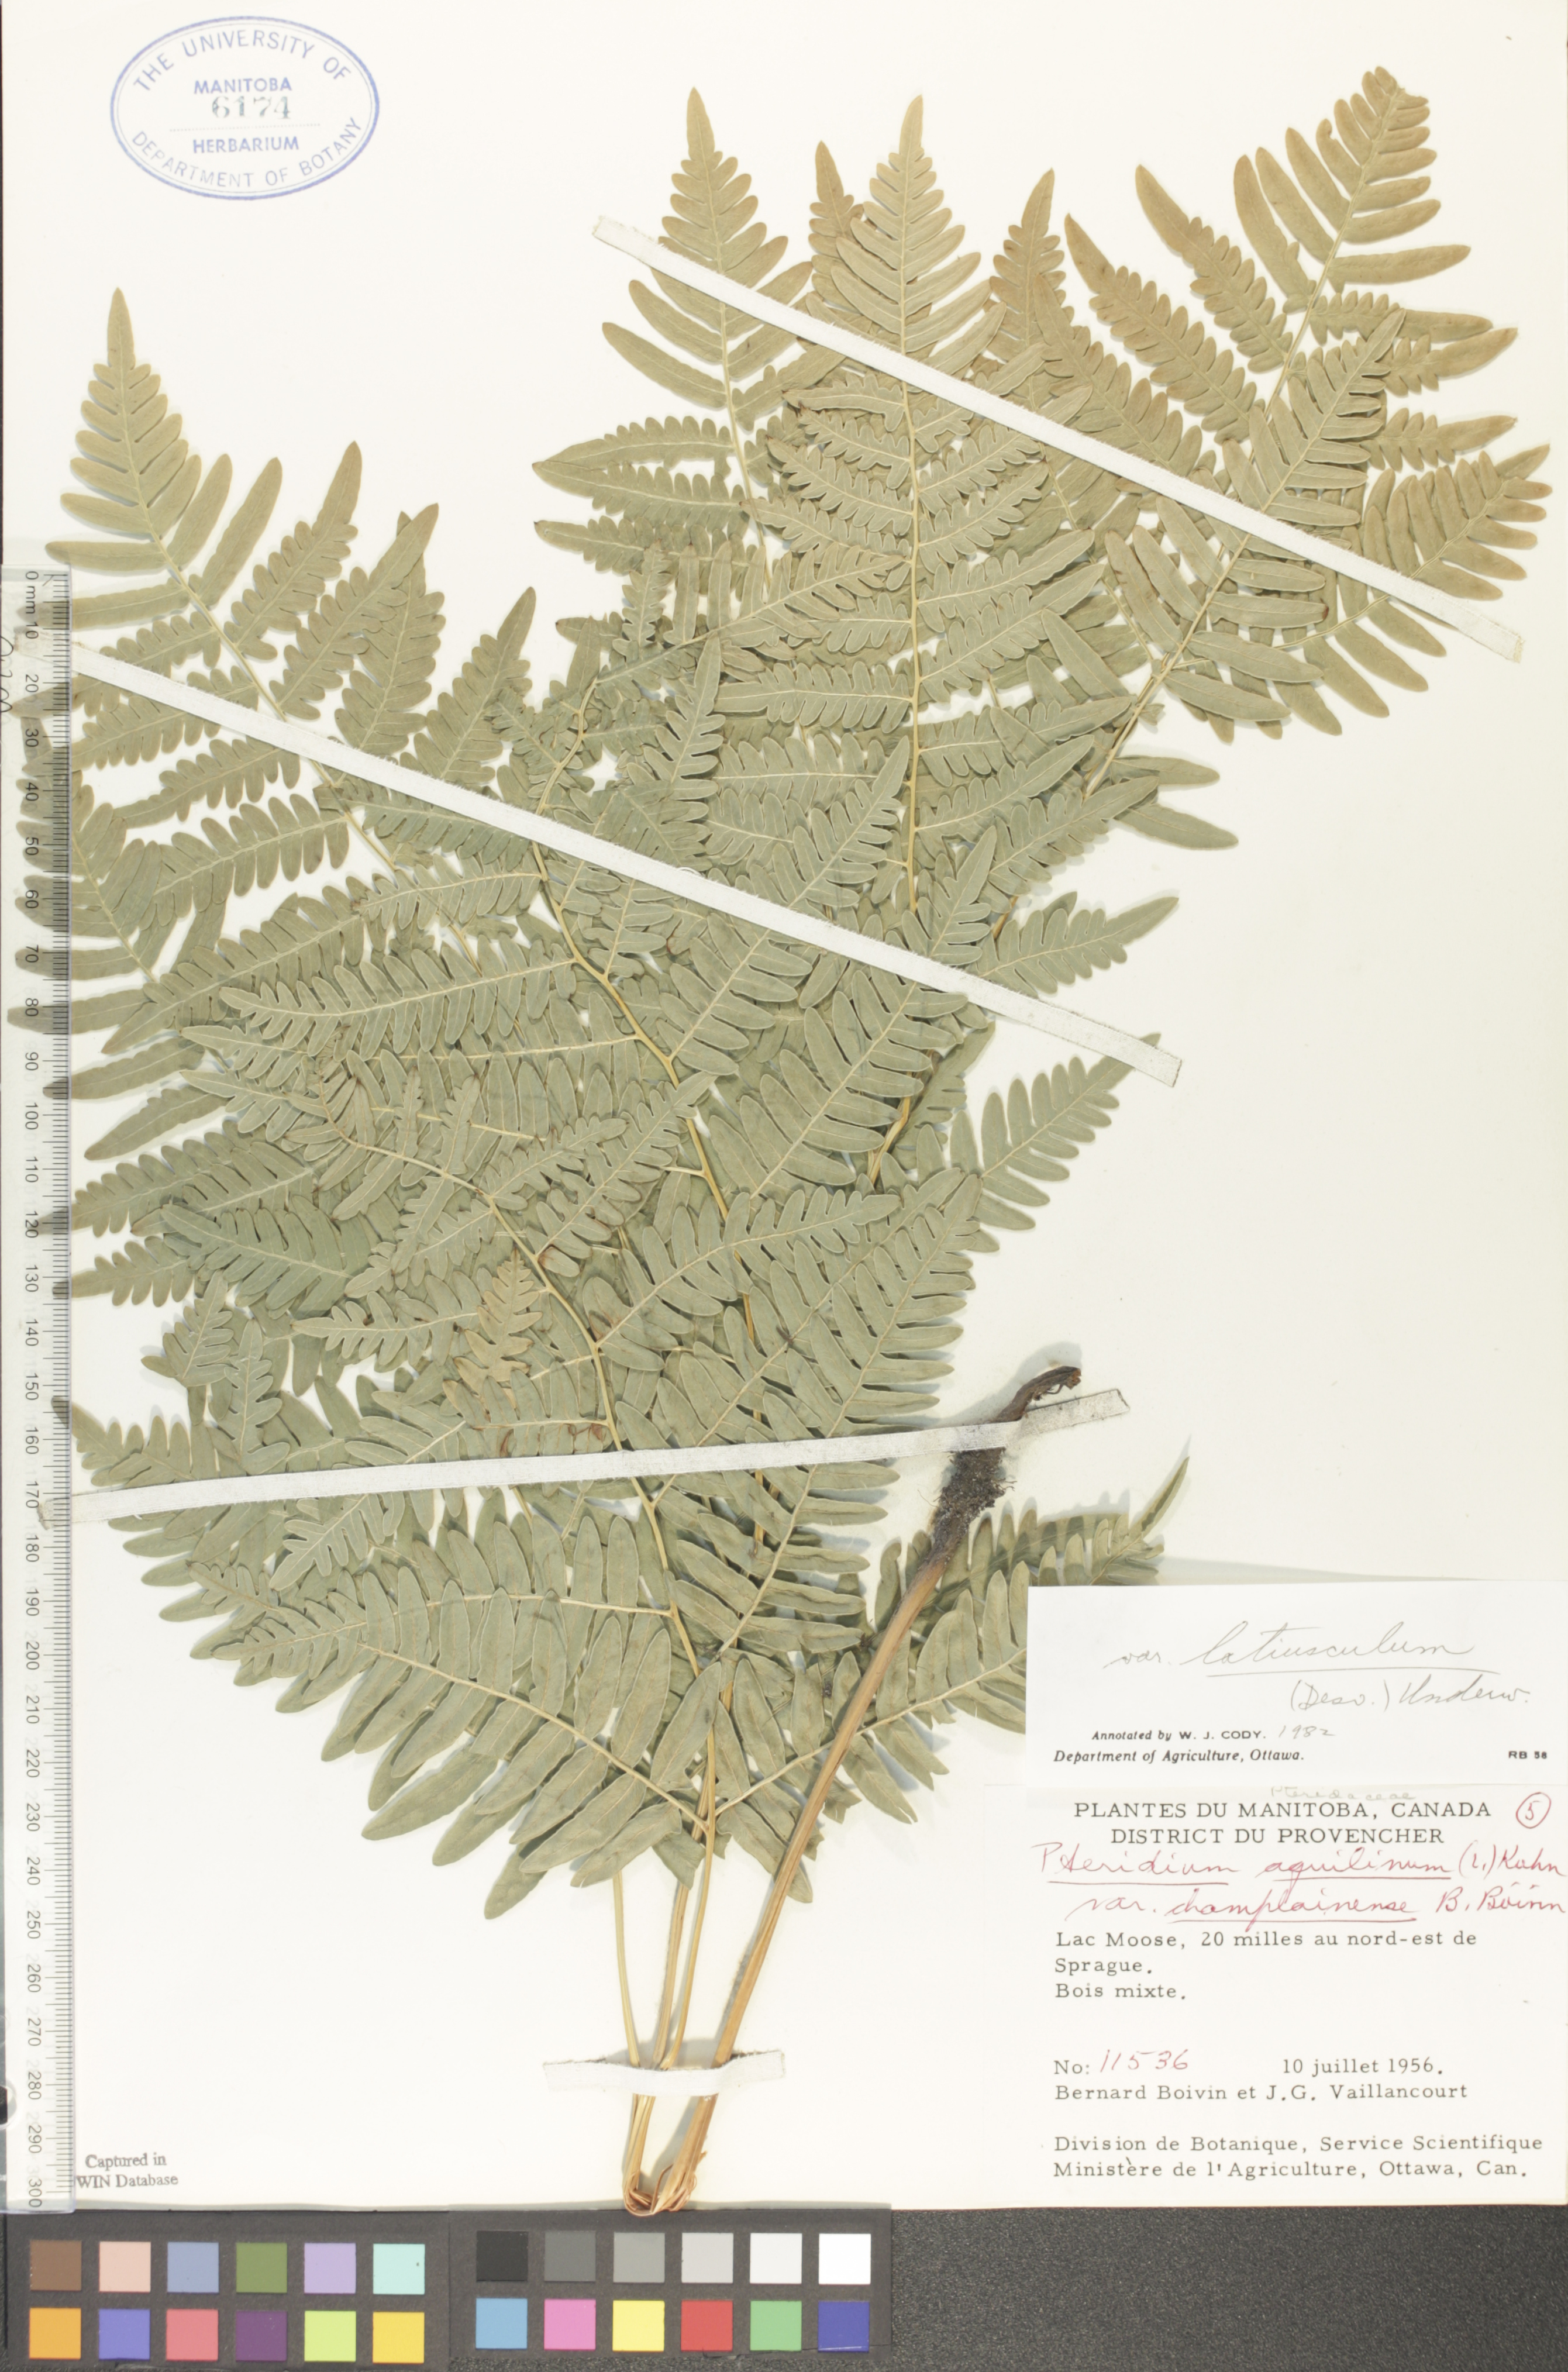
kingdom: Plantae
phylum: Tracheophyta
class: Polypodiopsida
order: Polypodiales
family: Dennstaedtiaceae
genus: Pteridium
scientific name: Pteridium aquilinum
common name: Bracken
